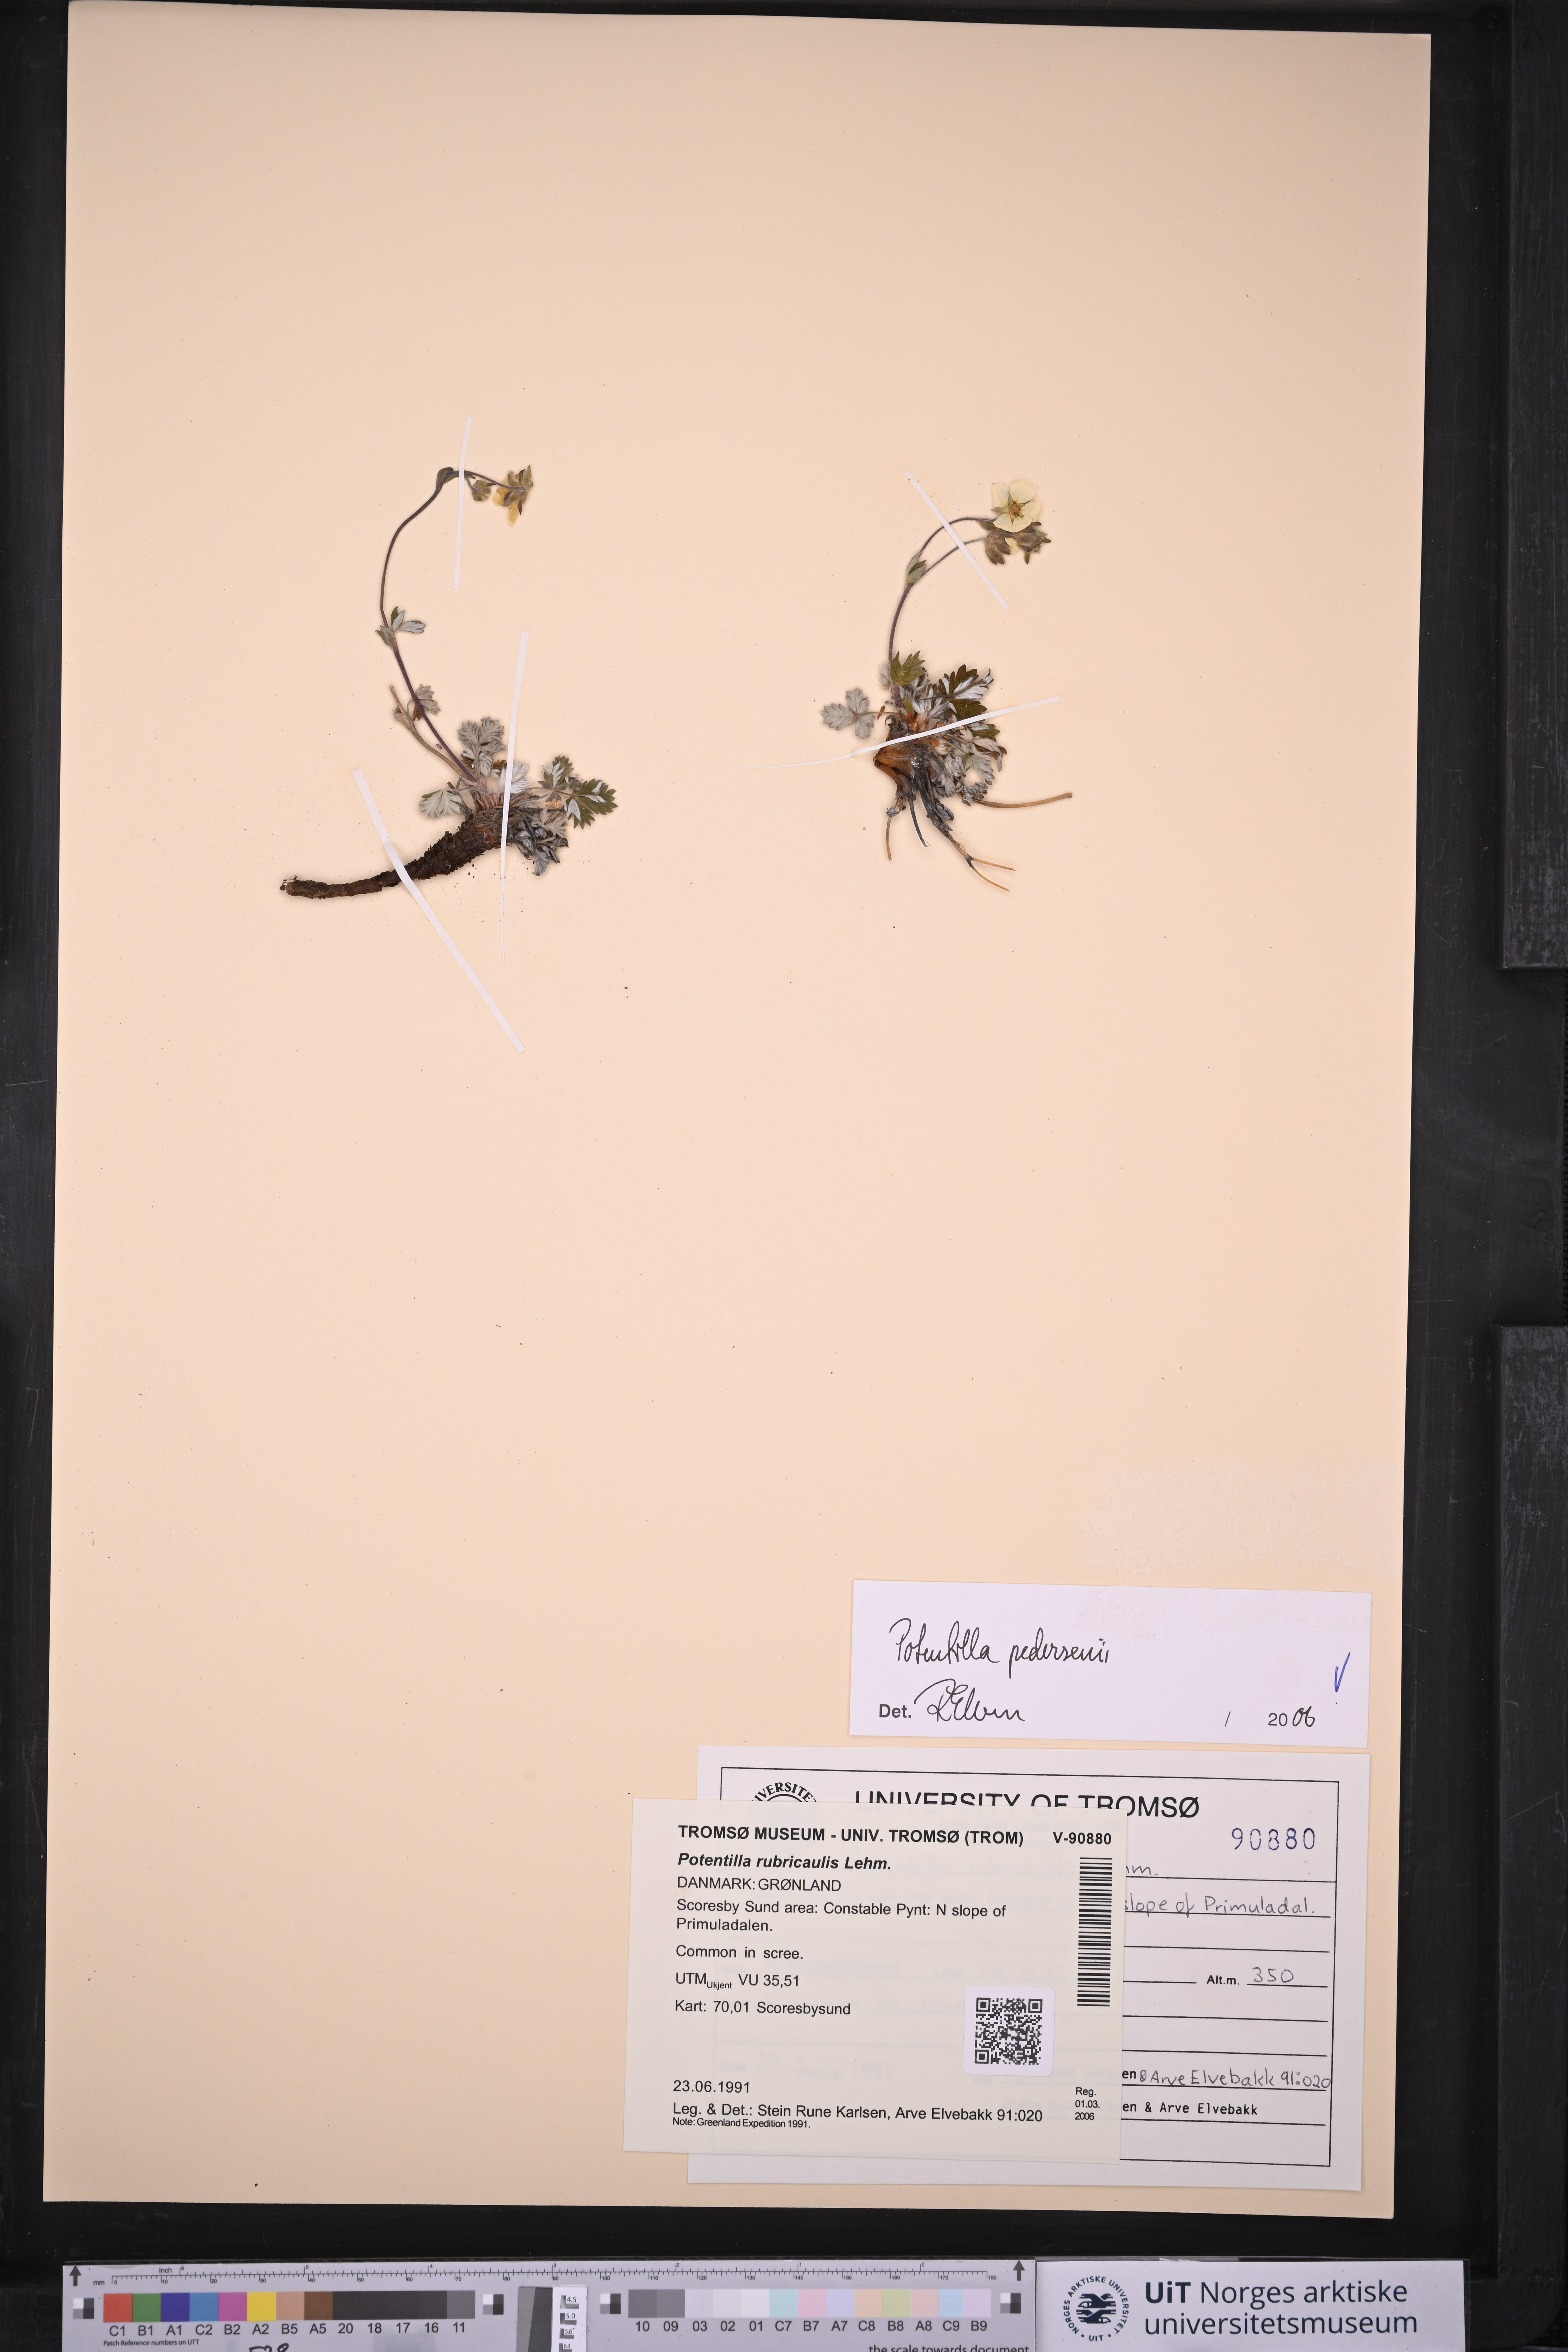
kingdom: Plantae
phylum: Tracheophyta
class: Magnoliopsida
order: Rosales
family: Rosaceae
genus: Potentilla
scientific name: Potentilla pedersenii
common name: Pedersen's cinquefoil
